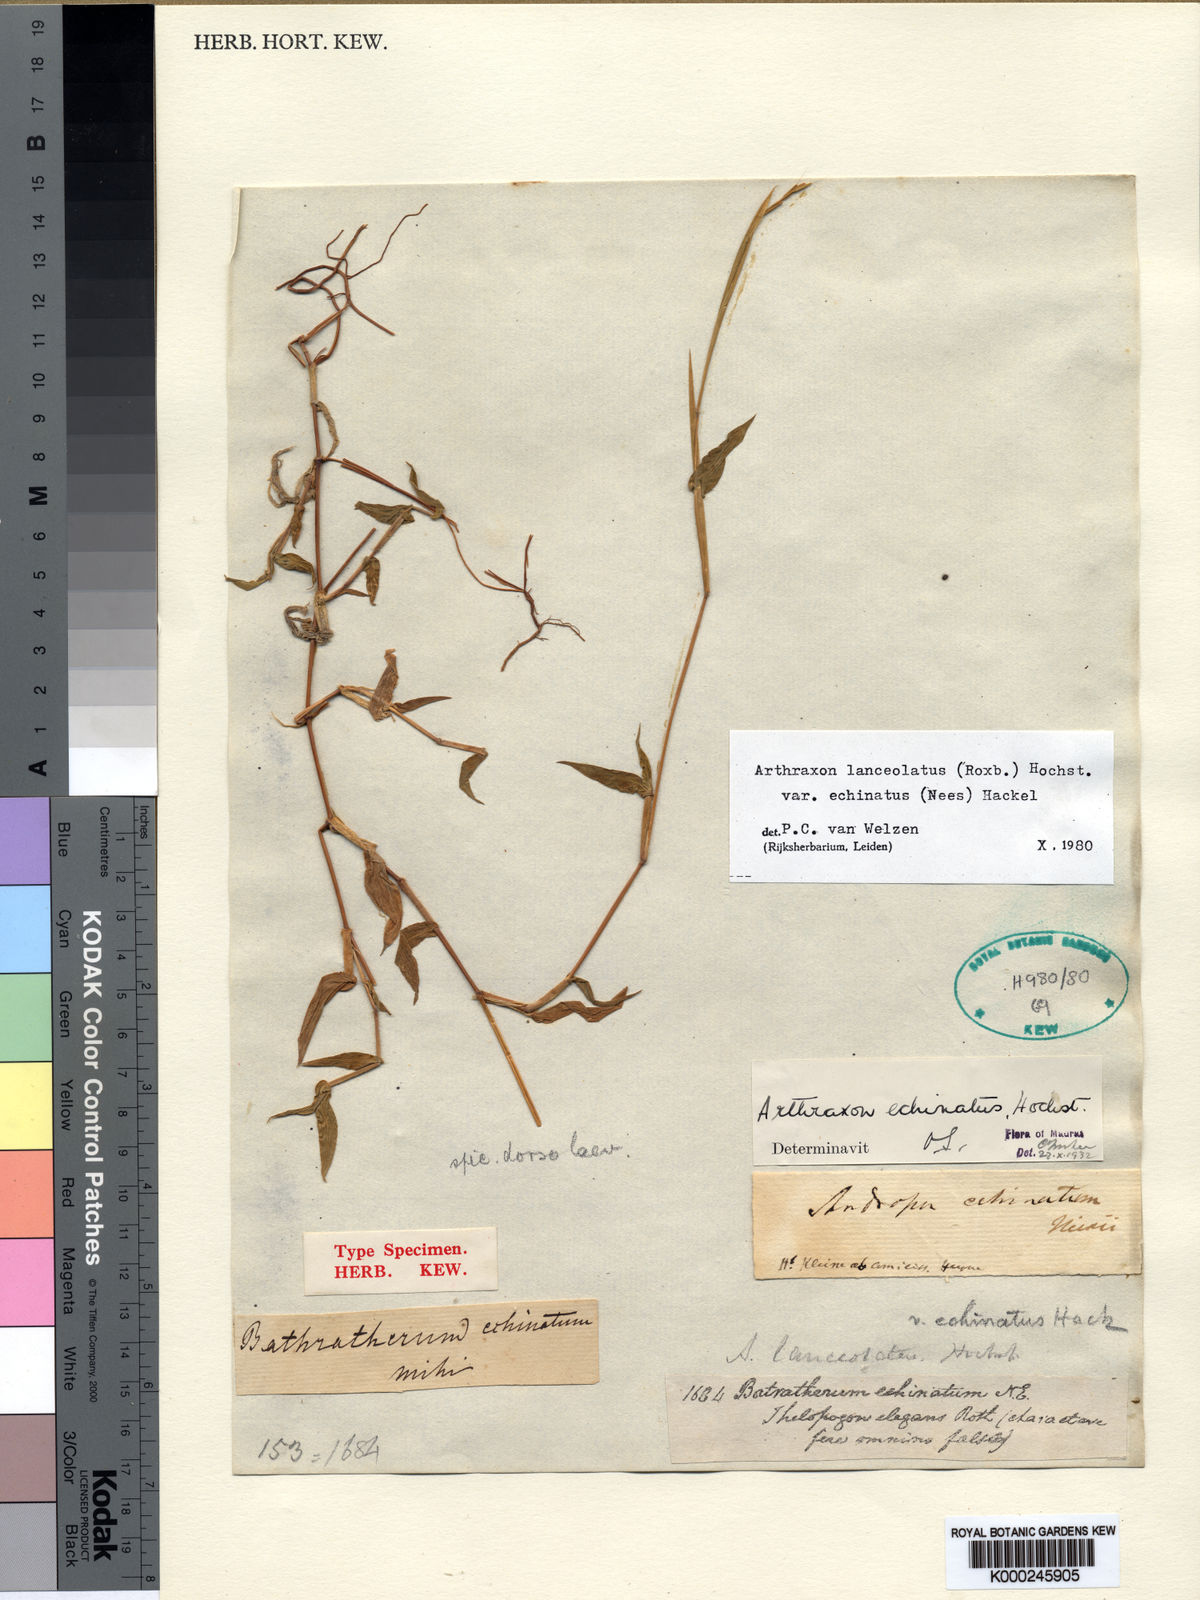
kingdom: Plantae
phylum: Tracheophyta
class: Liliopsida
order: Poales
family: Poaceae
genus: Arthraxon
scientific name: Arthraxon echinatus
